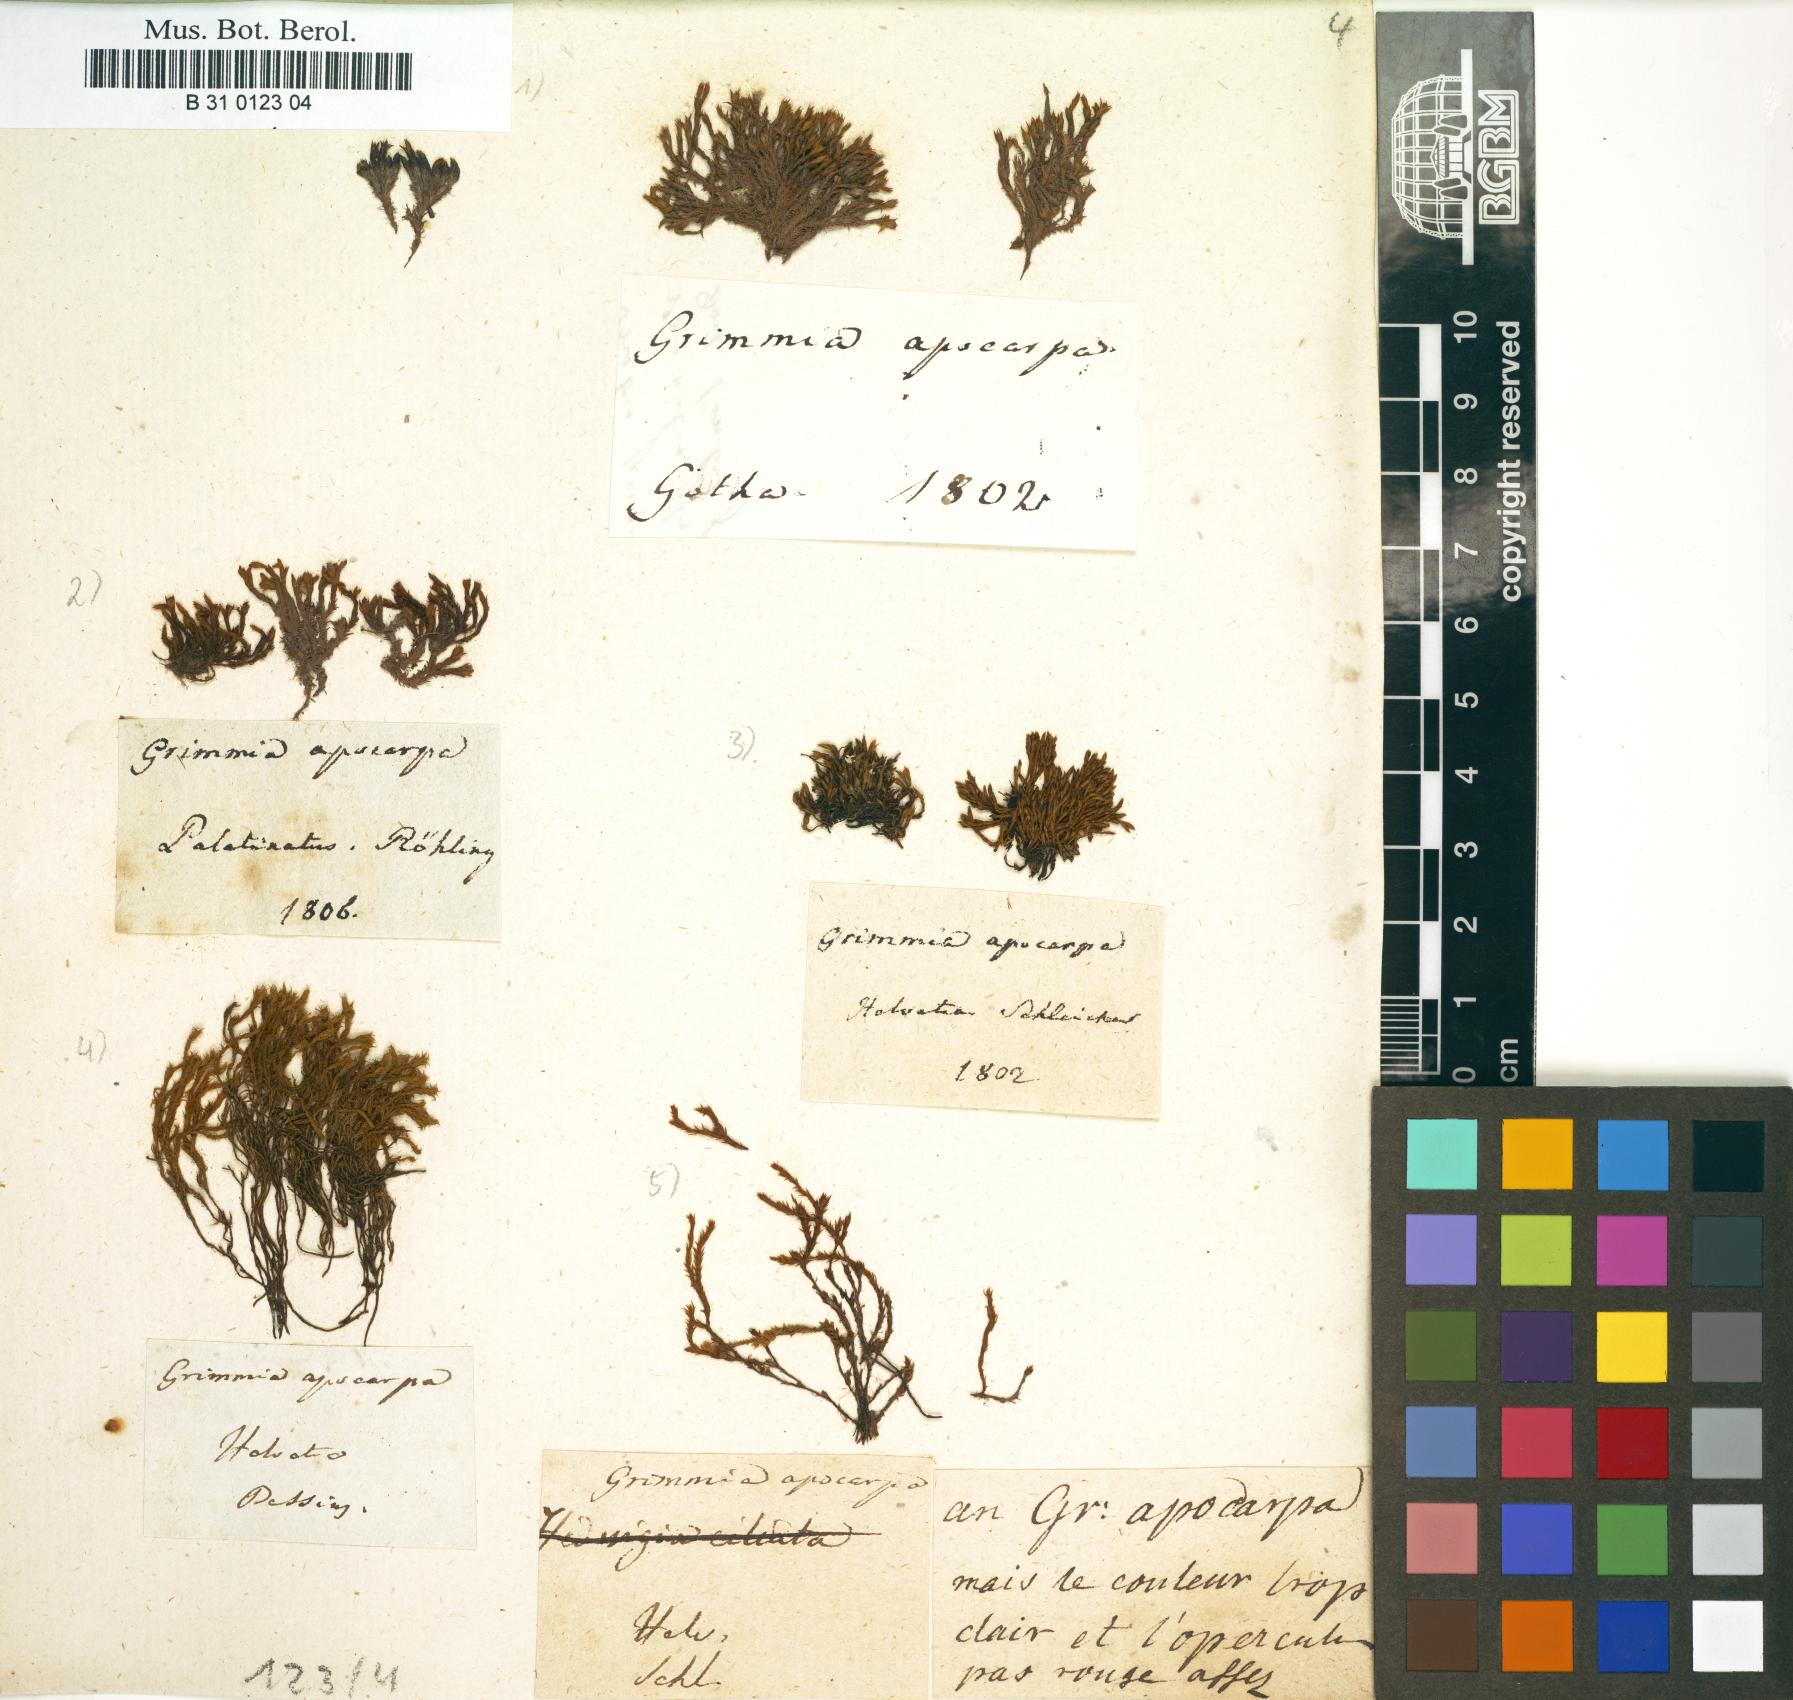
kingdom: Plantae
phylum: Bryophyta
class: Bryopsida
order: Grimmiales
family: Grimmiaceae
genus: Schistidium
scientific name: Schistidium apocarpum
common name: Radiate bloom moss
